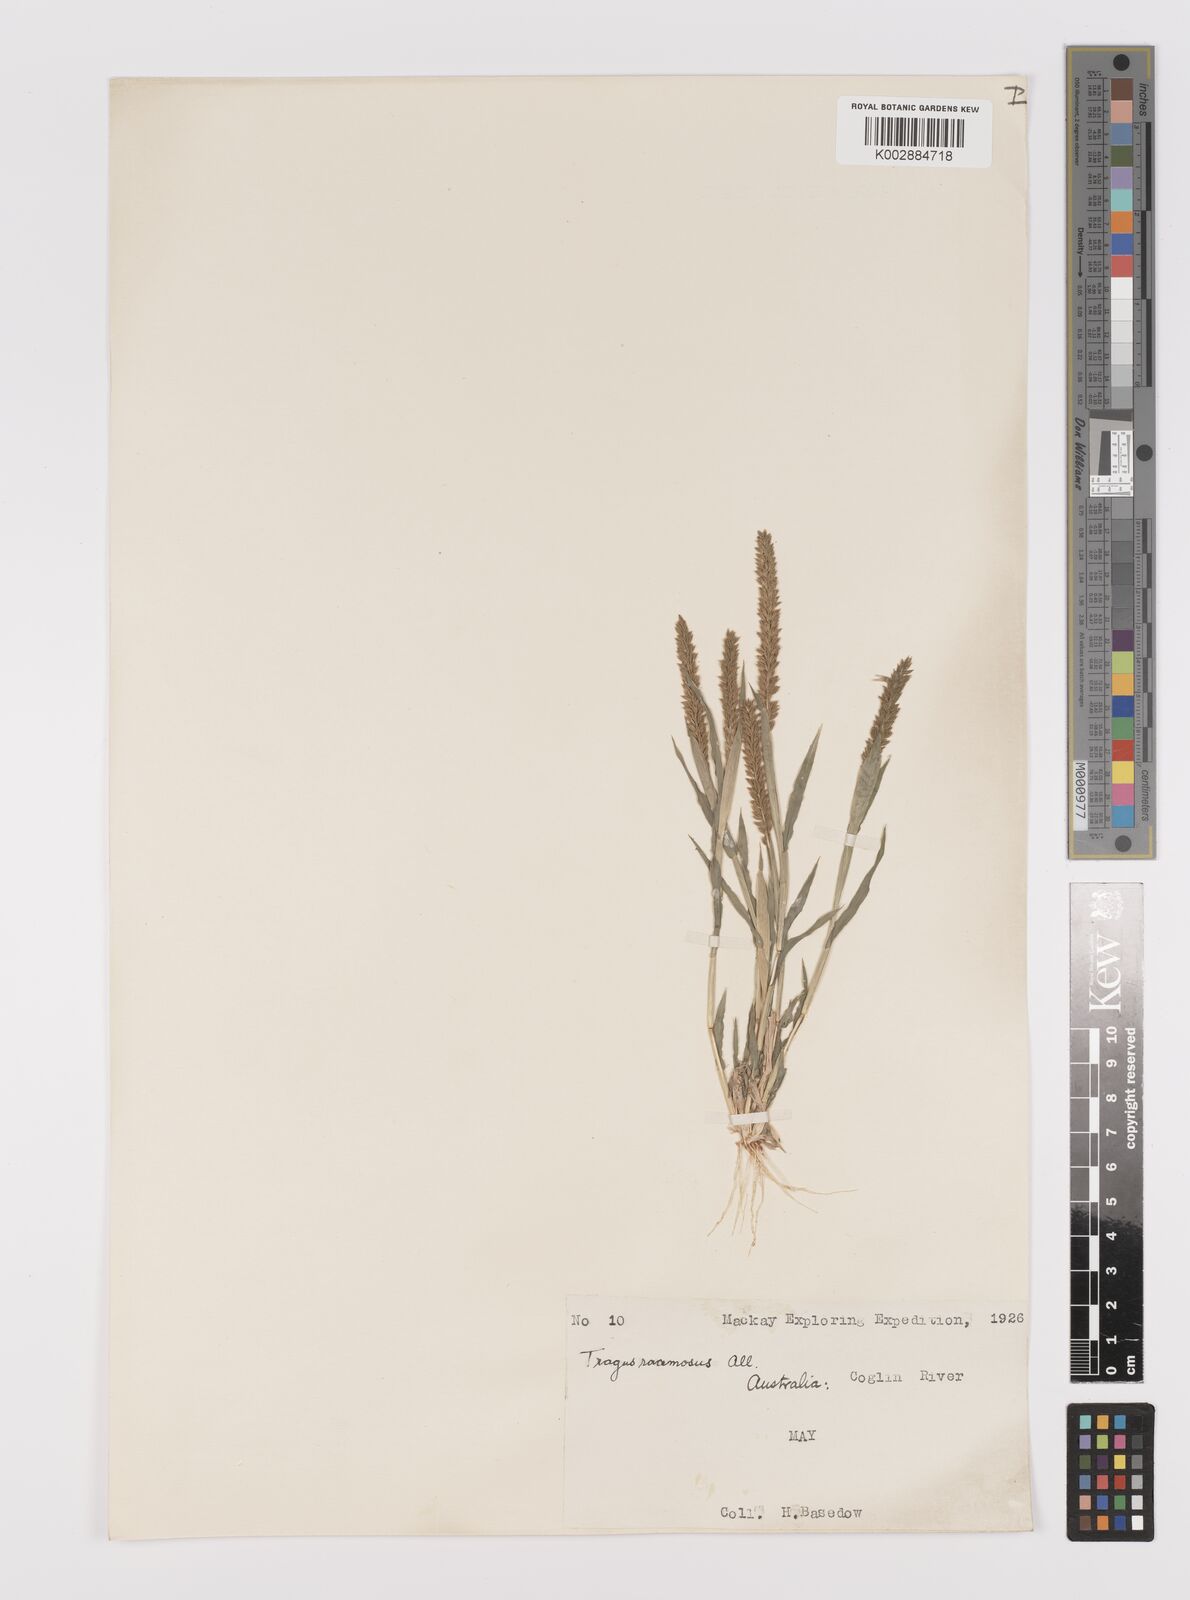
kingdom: Plantae
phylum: Tracheophyta
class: Liliopsida
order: Poales
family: Poaceae
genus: Tragus
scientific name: Tragus australianus
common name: Australian bur-grass
